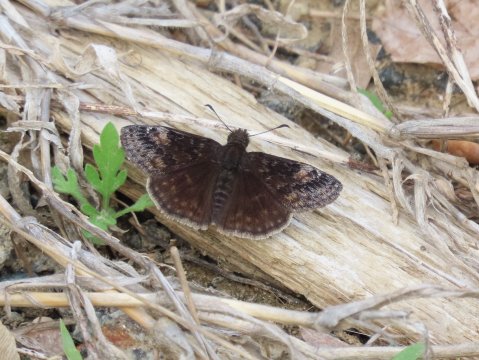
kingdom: Animalia
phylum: Arthropoda
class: Insecta
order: Lepidoptera
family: Hesperiidae
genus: Gesta
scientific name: Gesta
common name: Wild Indigo Duskywing
